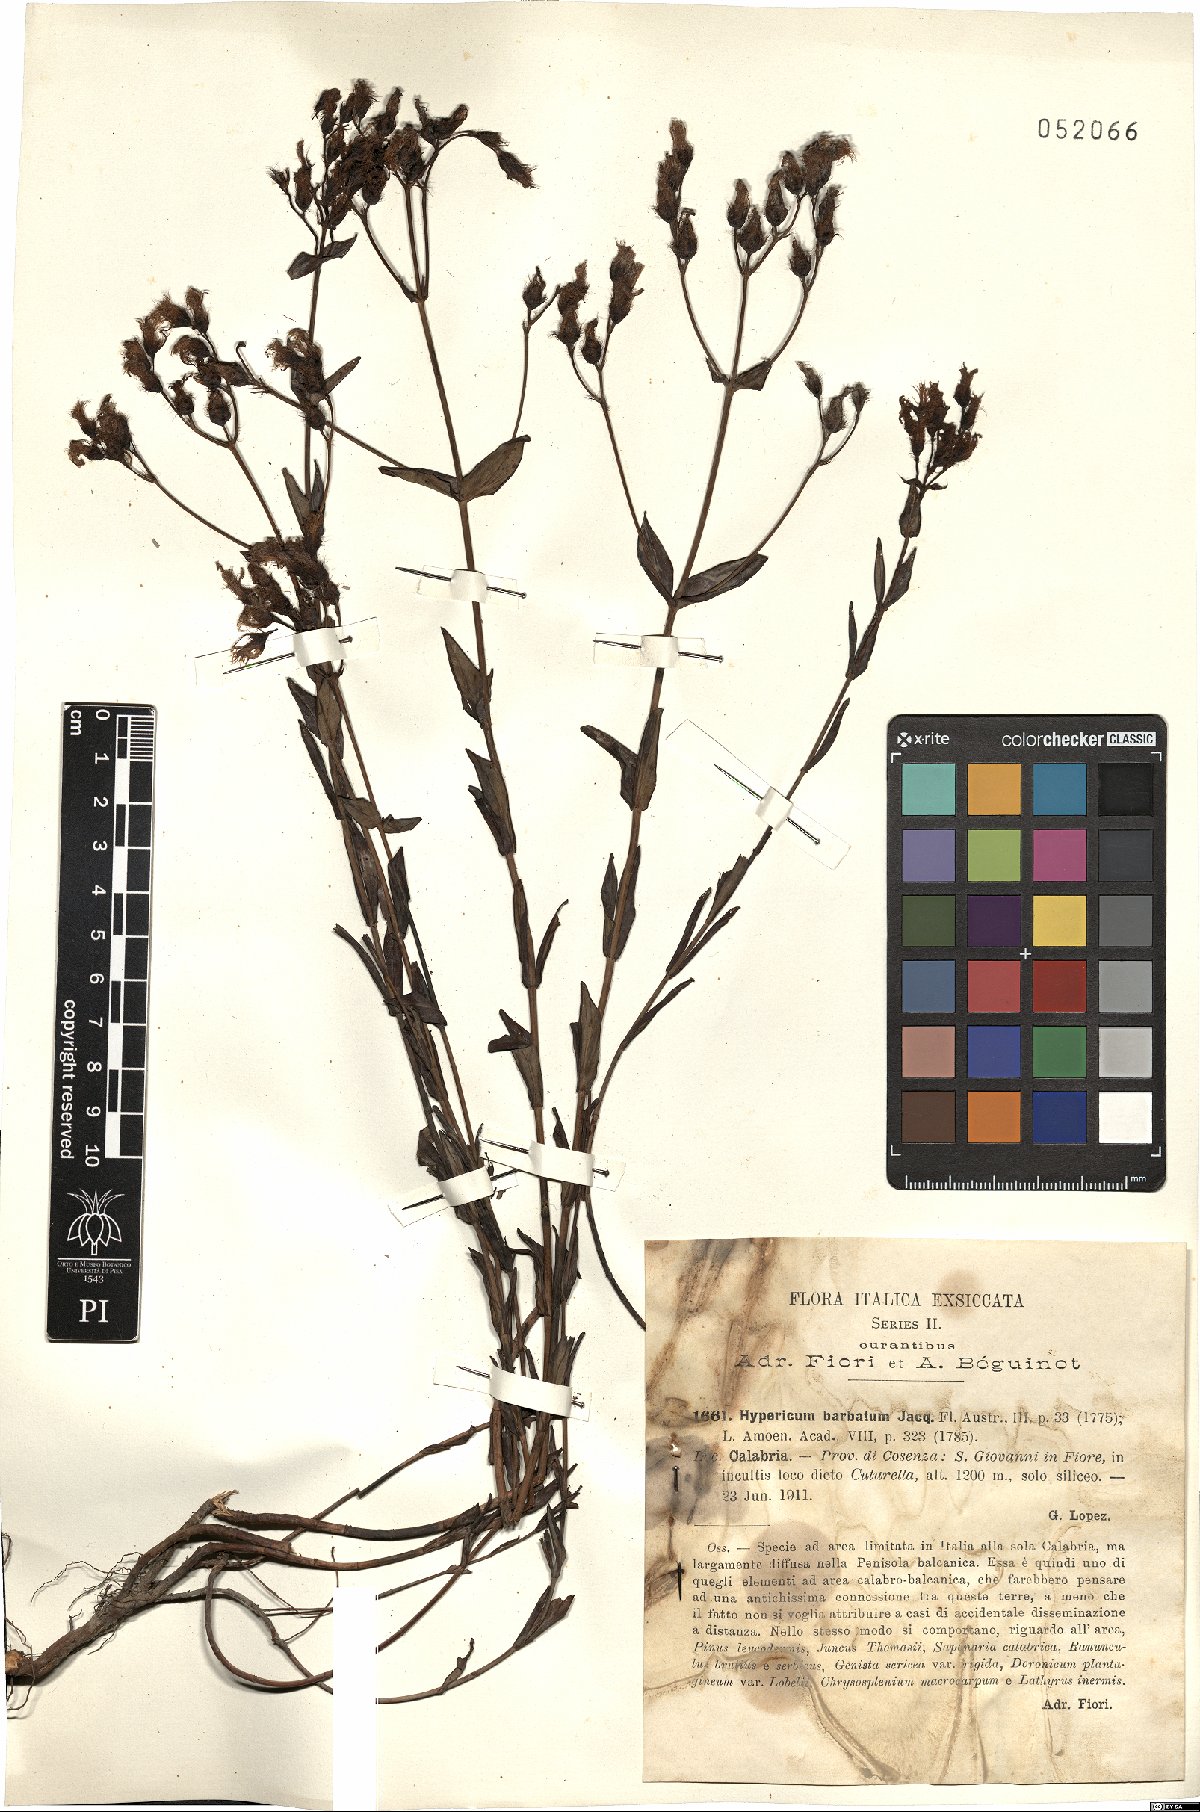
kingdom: Plantae
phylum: Tracheophyta
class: Magnoliopsida
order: Malpighiales
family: Hypericaceae
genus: Hypericum
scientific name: Hypericum barbatum
